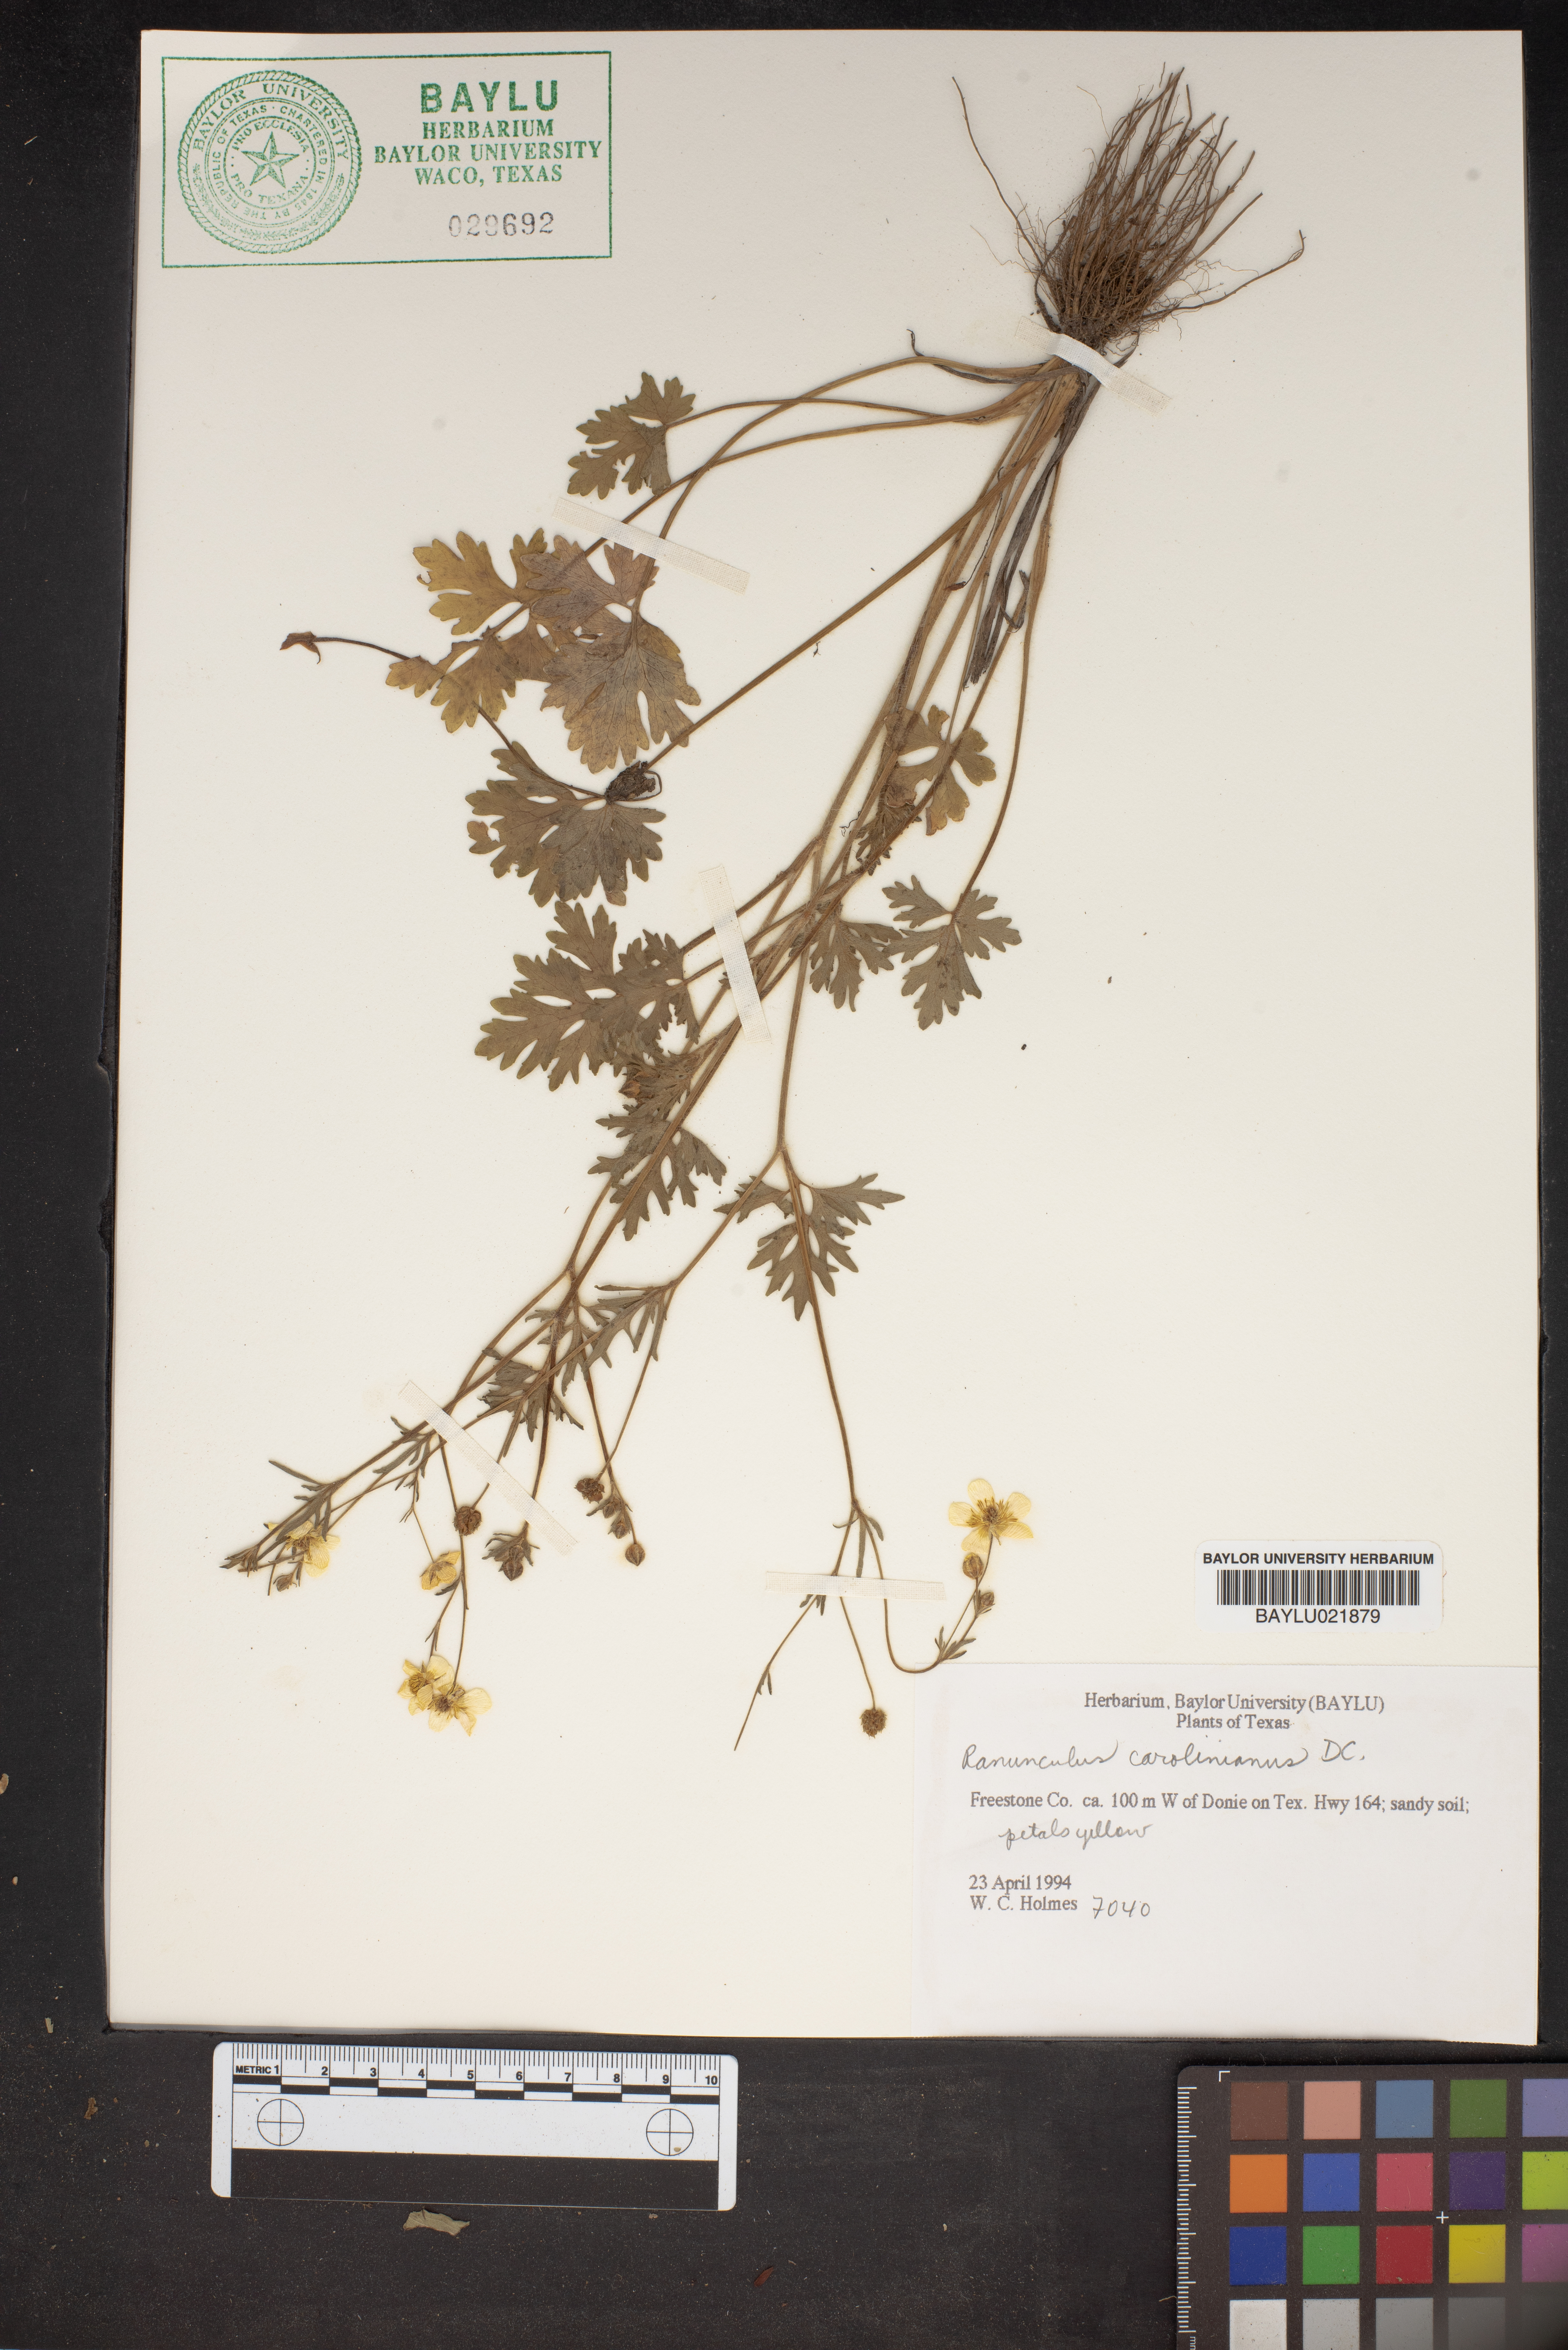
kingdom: Plantae
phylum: Tracheophyta
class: Magnoliopsida
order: Ranunculales
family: Ranunculaceae
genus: Ranunculus
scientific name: Ranunculus hispidus
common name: Bristly buttercup
